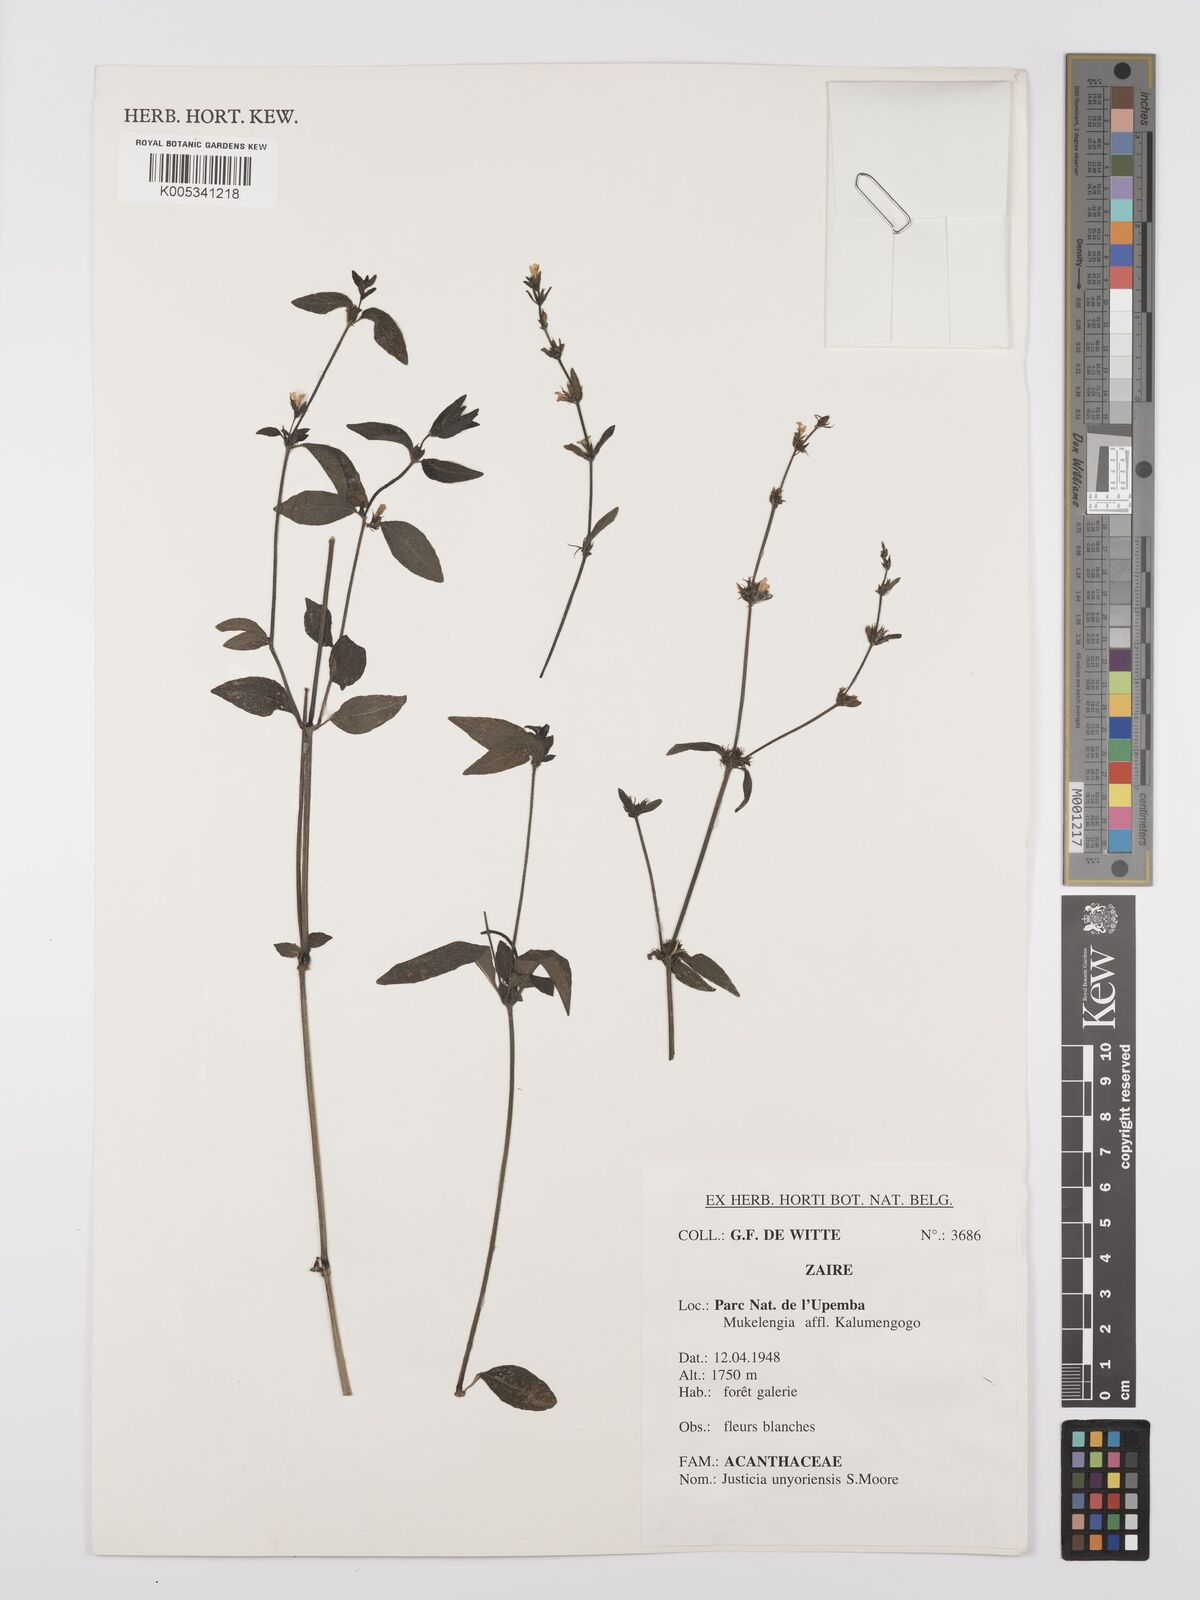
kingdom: Plantae
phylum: Tracheophyta
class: Magnoliopsida
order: Lamiales
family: Acanthaceae
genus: Justicia
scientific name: Justicia unyorensis
